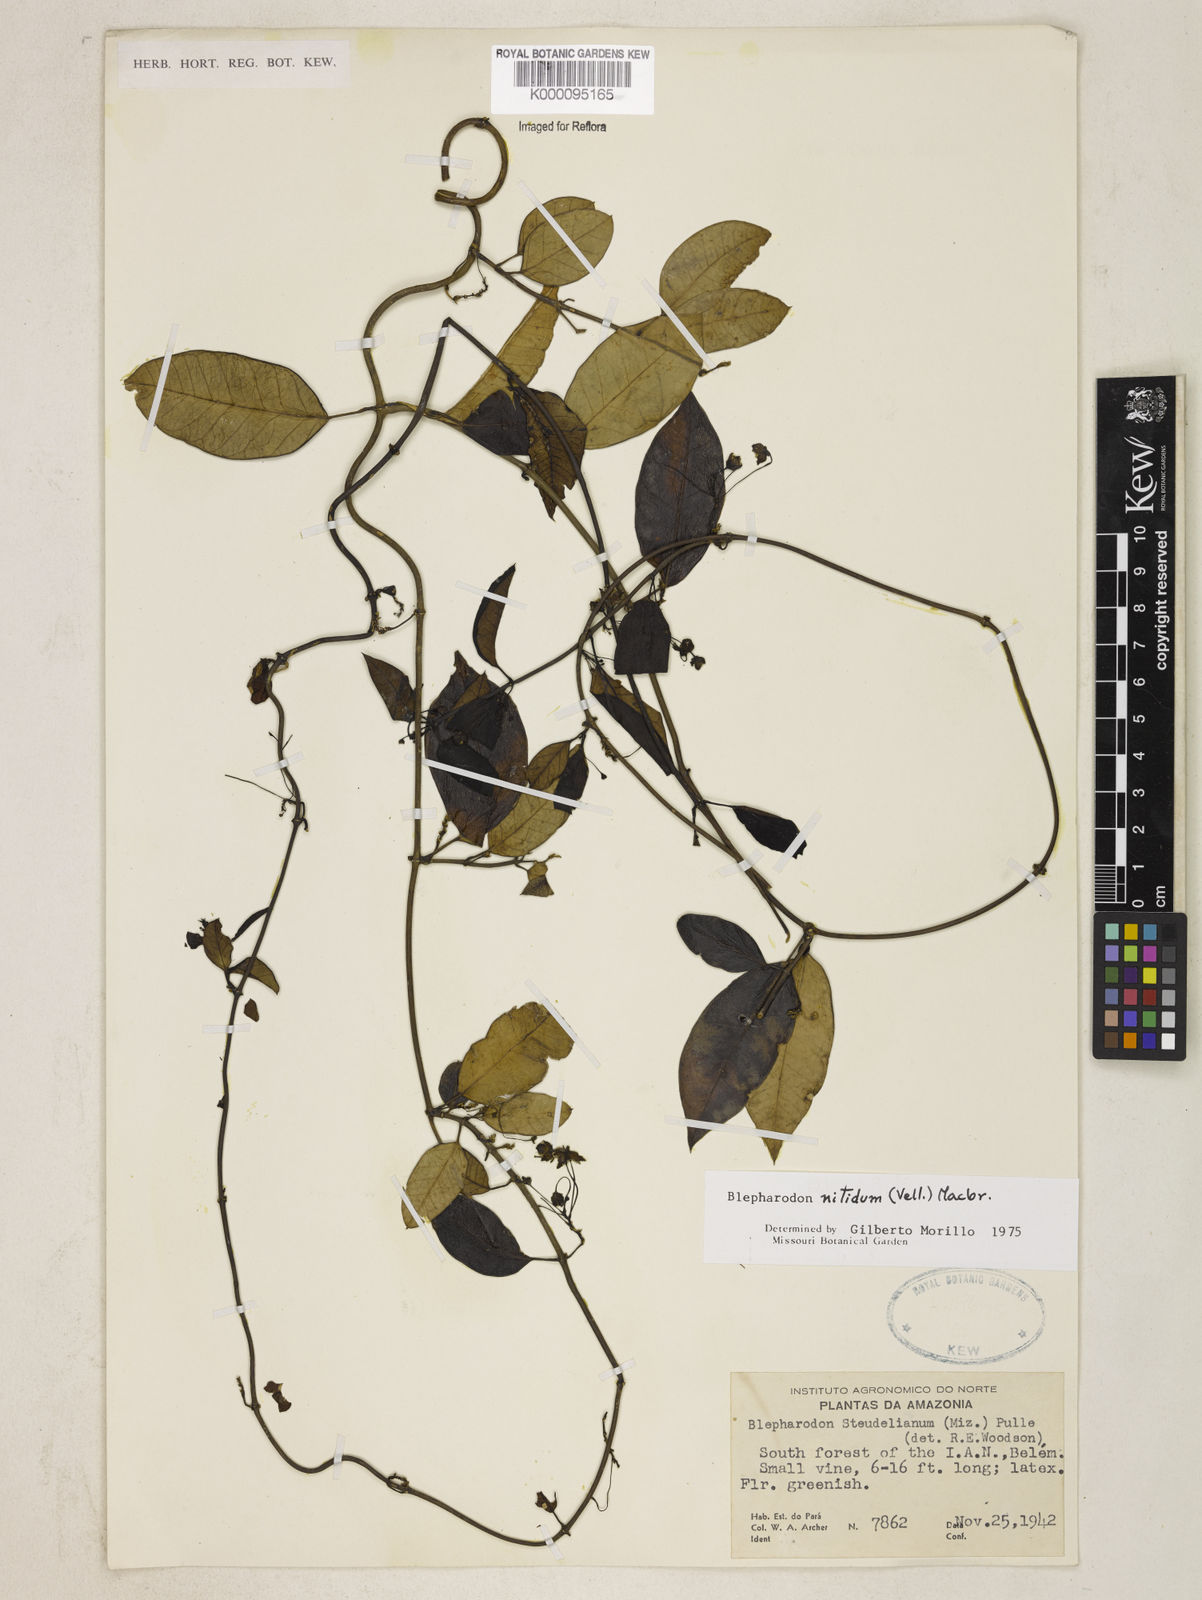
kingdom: Plantae
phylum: Tracheophyta
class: Magnoliopsida
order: Gentianales
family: Apocynaceae
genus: Blepharodon
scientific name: Blepharodon pictum
